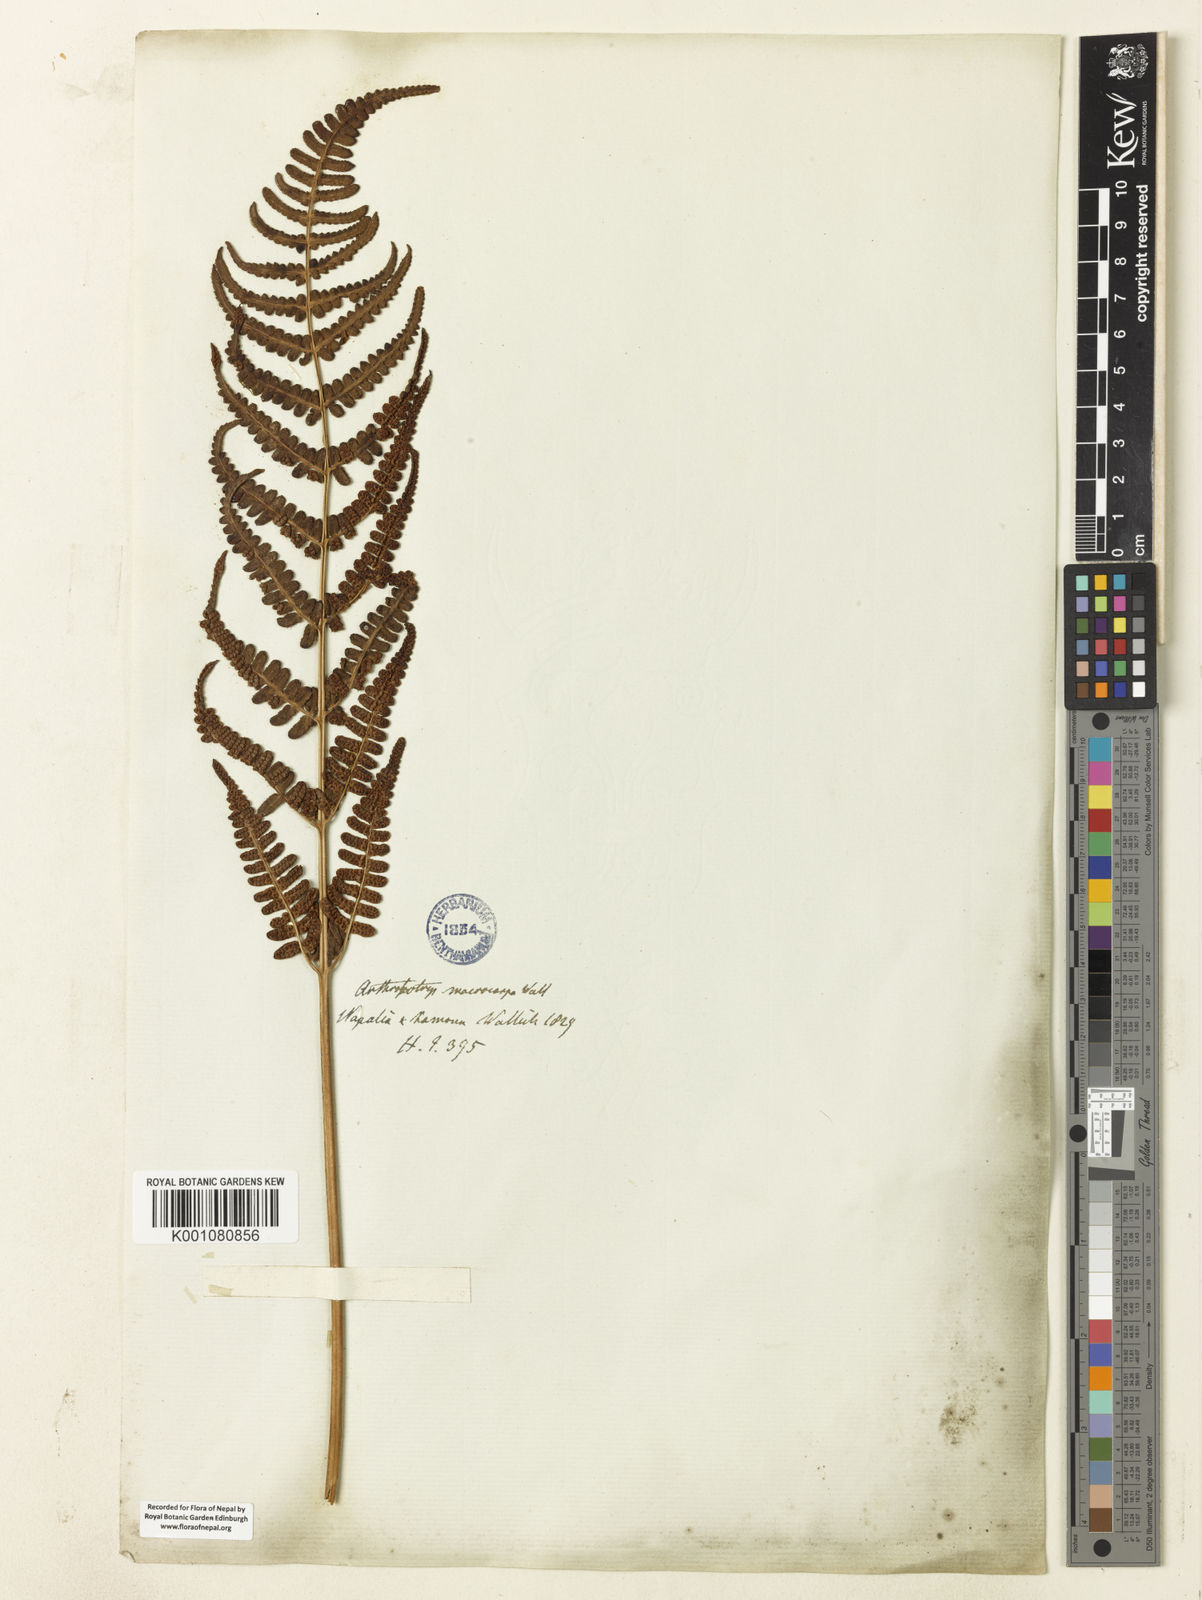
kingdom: Plantae
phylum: Tracheophyta
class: Polypodiopsida
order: Polypodiales
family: Dryopteridaceae
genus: Dryopteris
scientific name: Dryopteris cochleata
